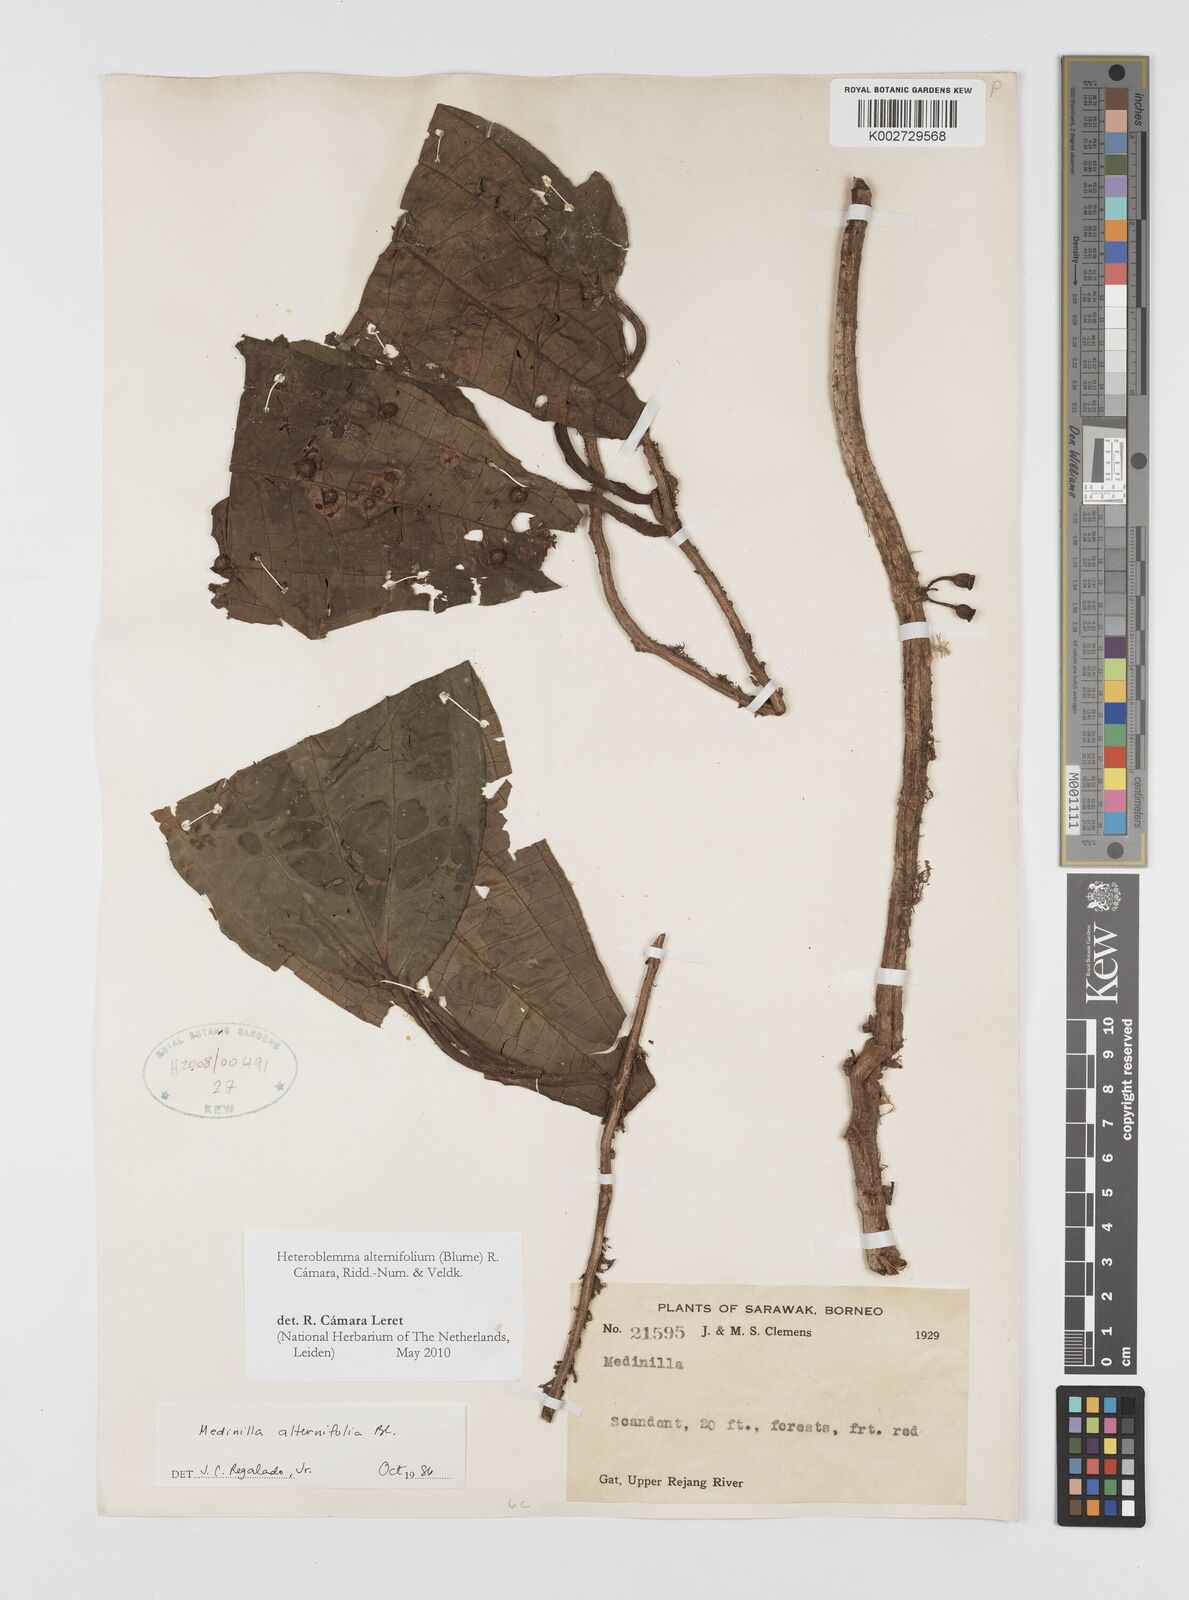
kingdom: Plantae
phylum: Tracheophyta
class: Magnoliopsida
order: Myrtales
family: Melastomataceae
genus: Heteroblemma
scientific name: Heteroblemma alternifolium
